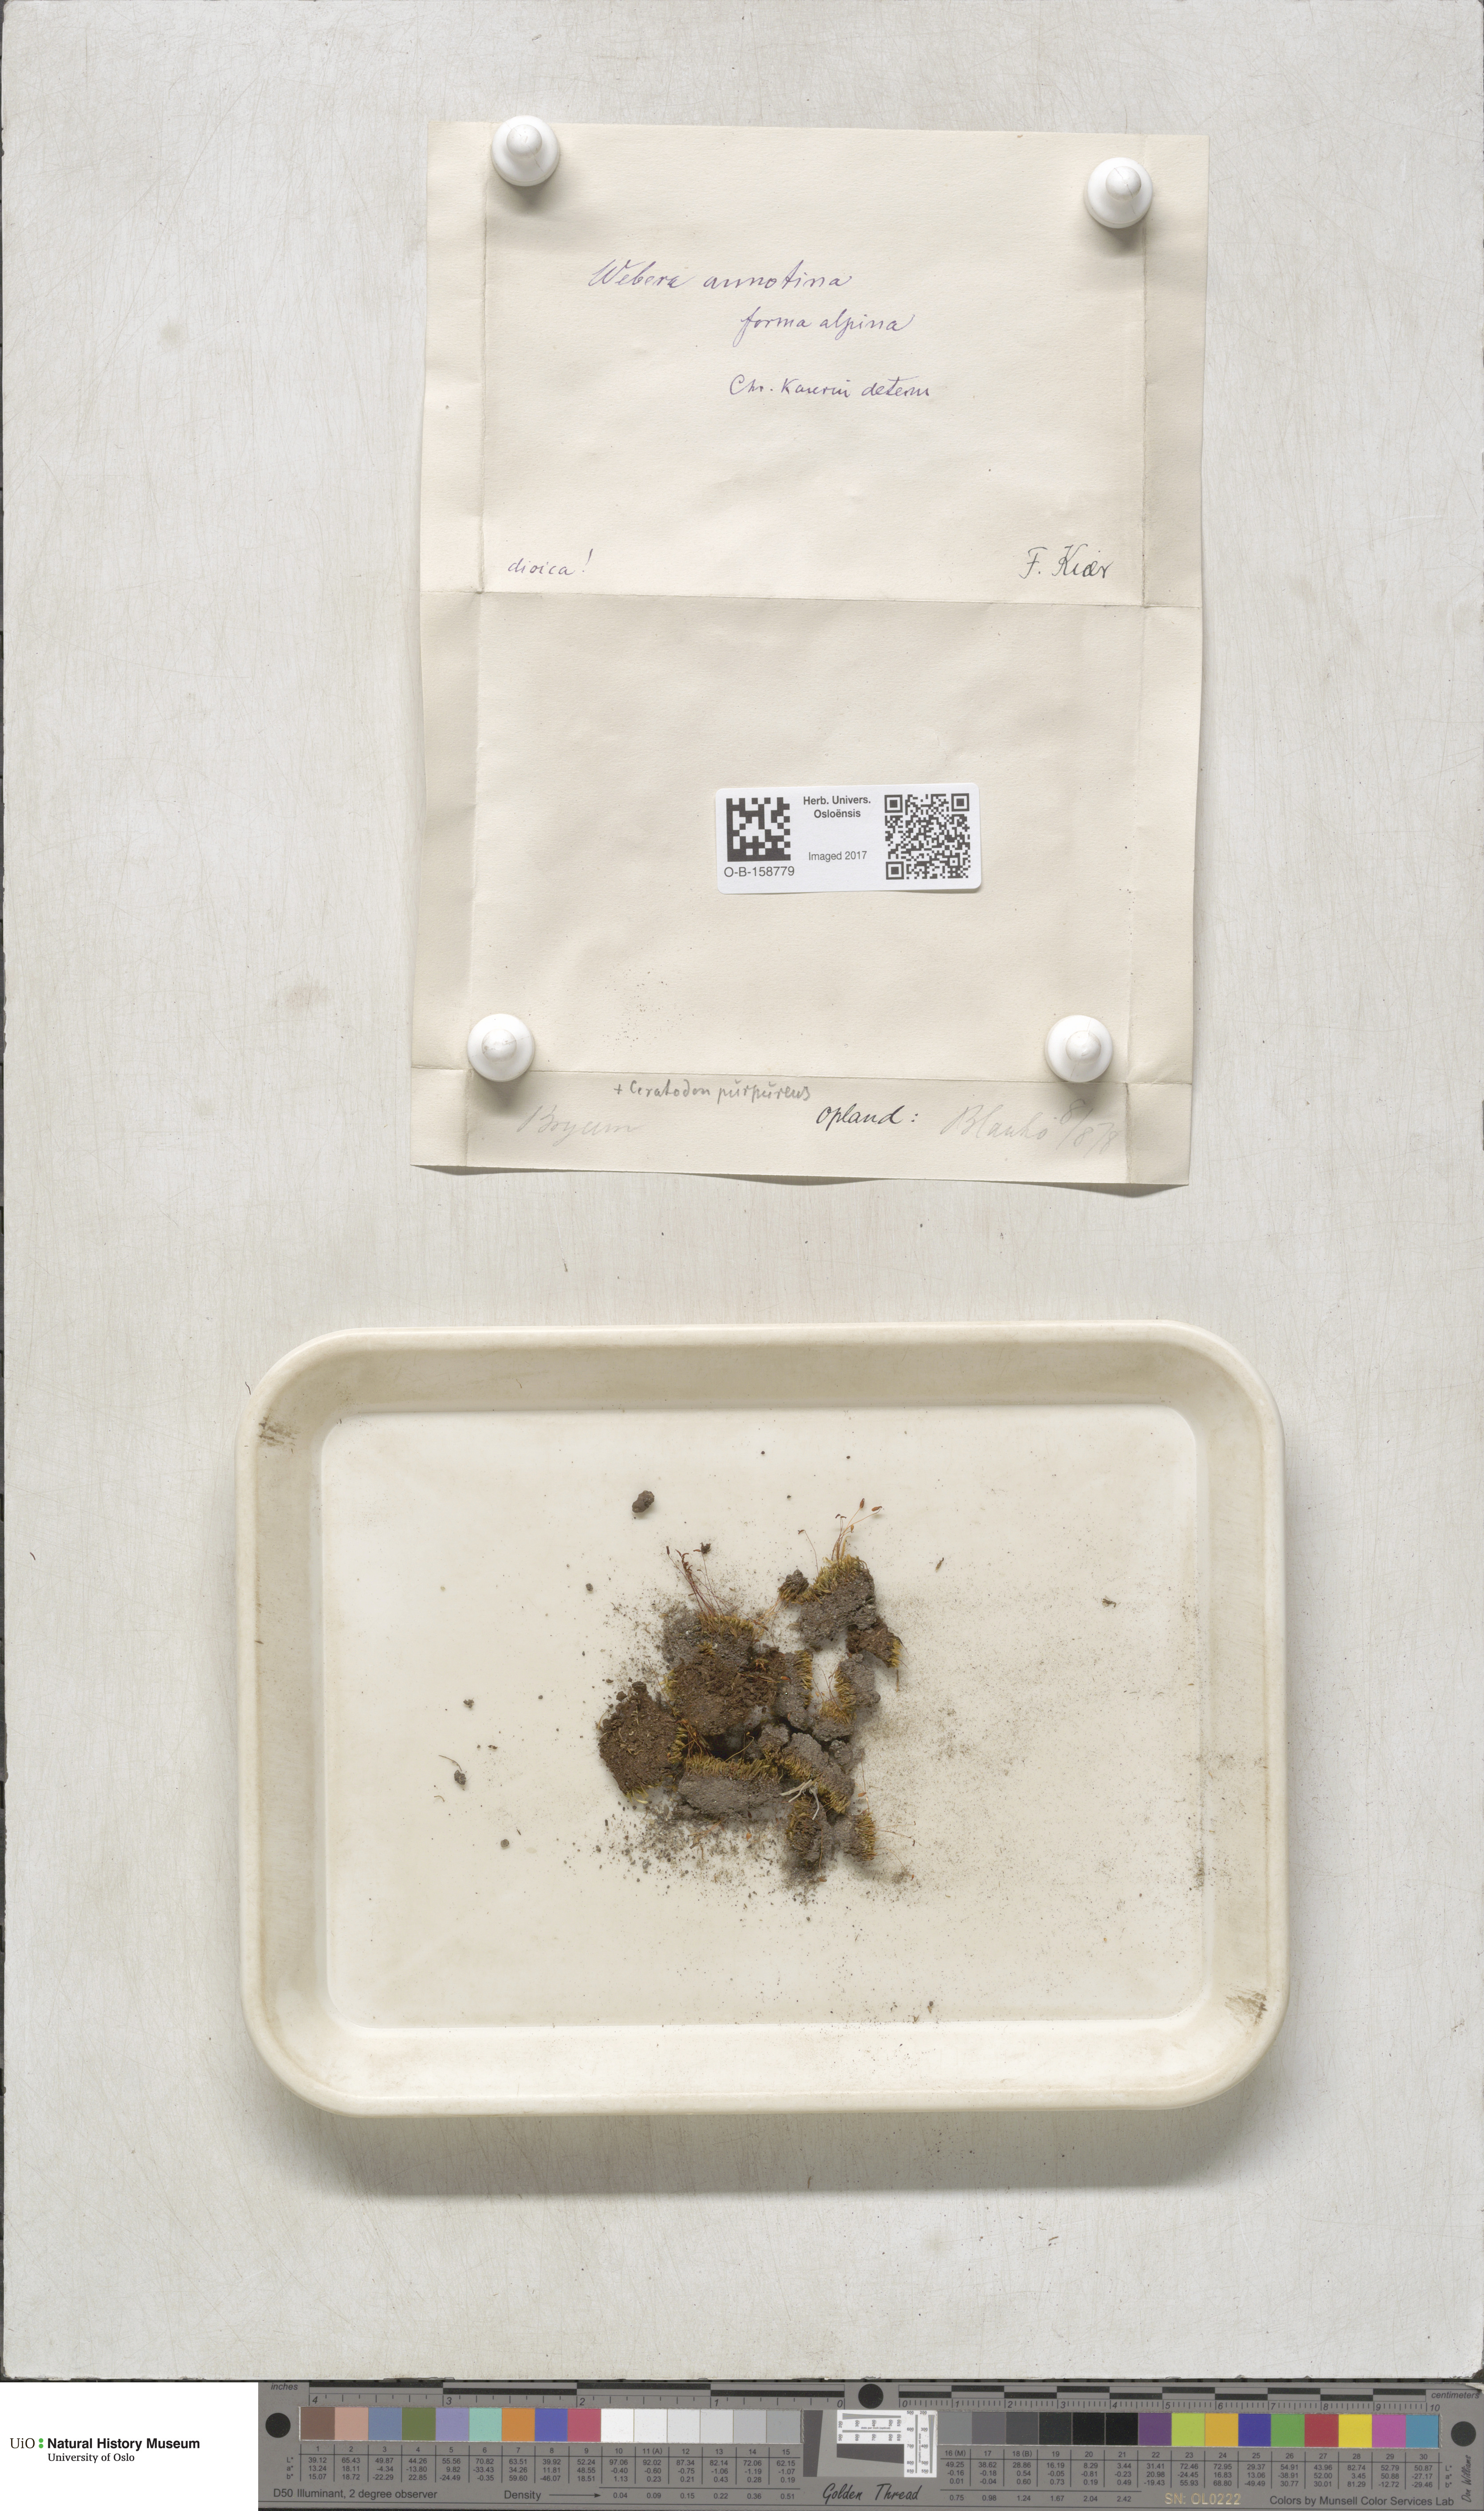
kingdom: Plantae
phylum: Bryophyta
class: Bryopsida
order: Bryales
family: Mniaceae
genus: Pohlia
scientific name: Pohlia annotina
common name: Pale-fruited nodding moss
